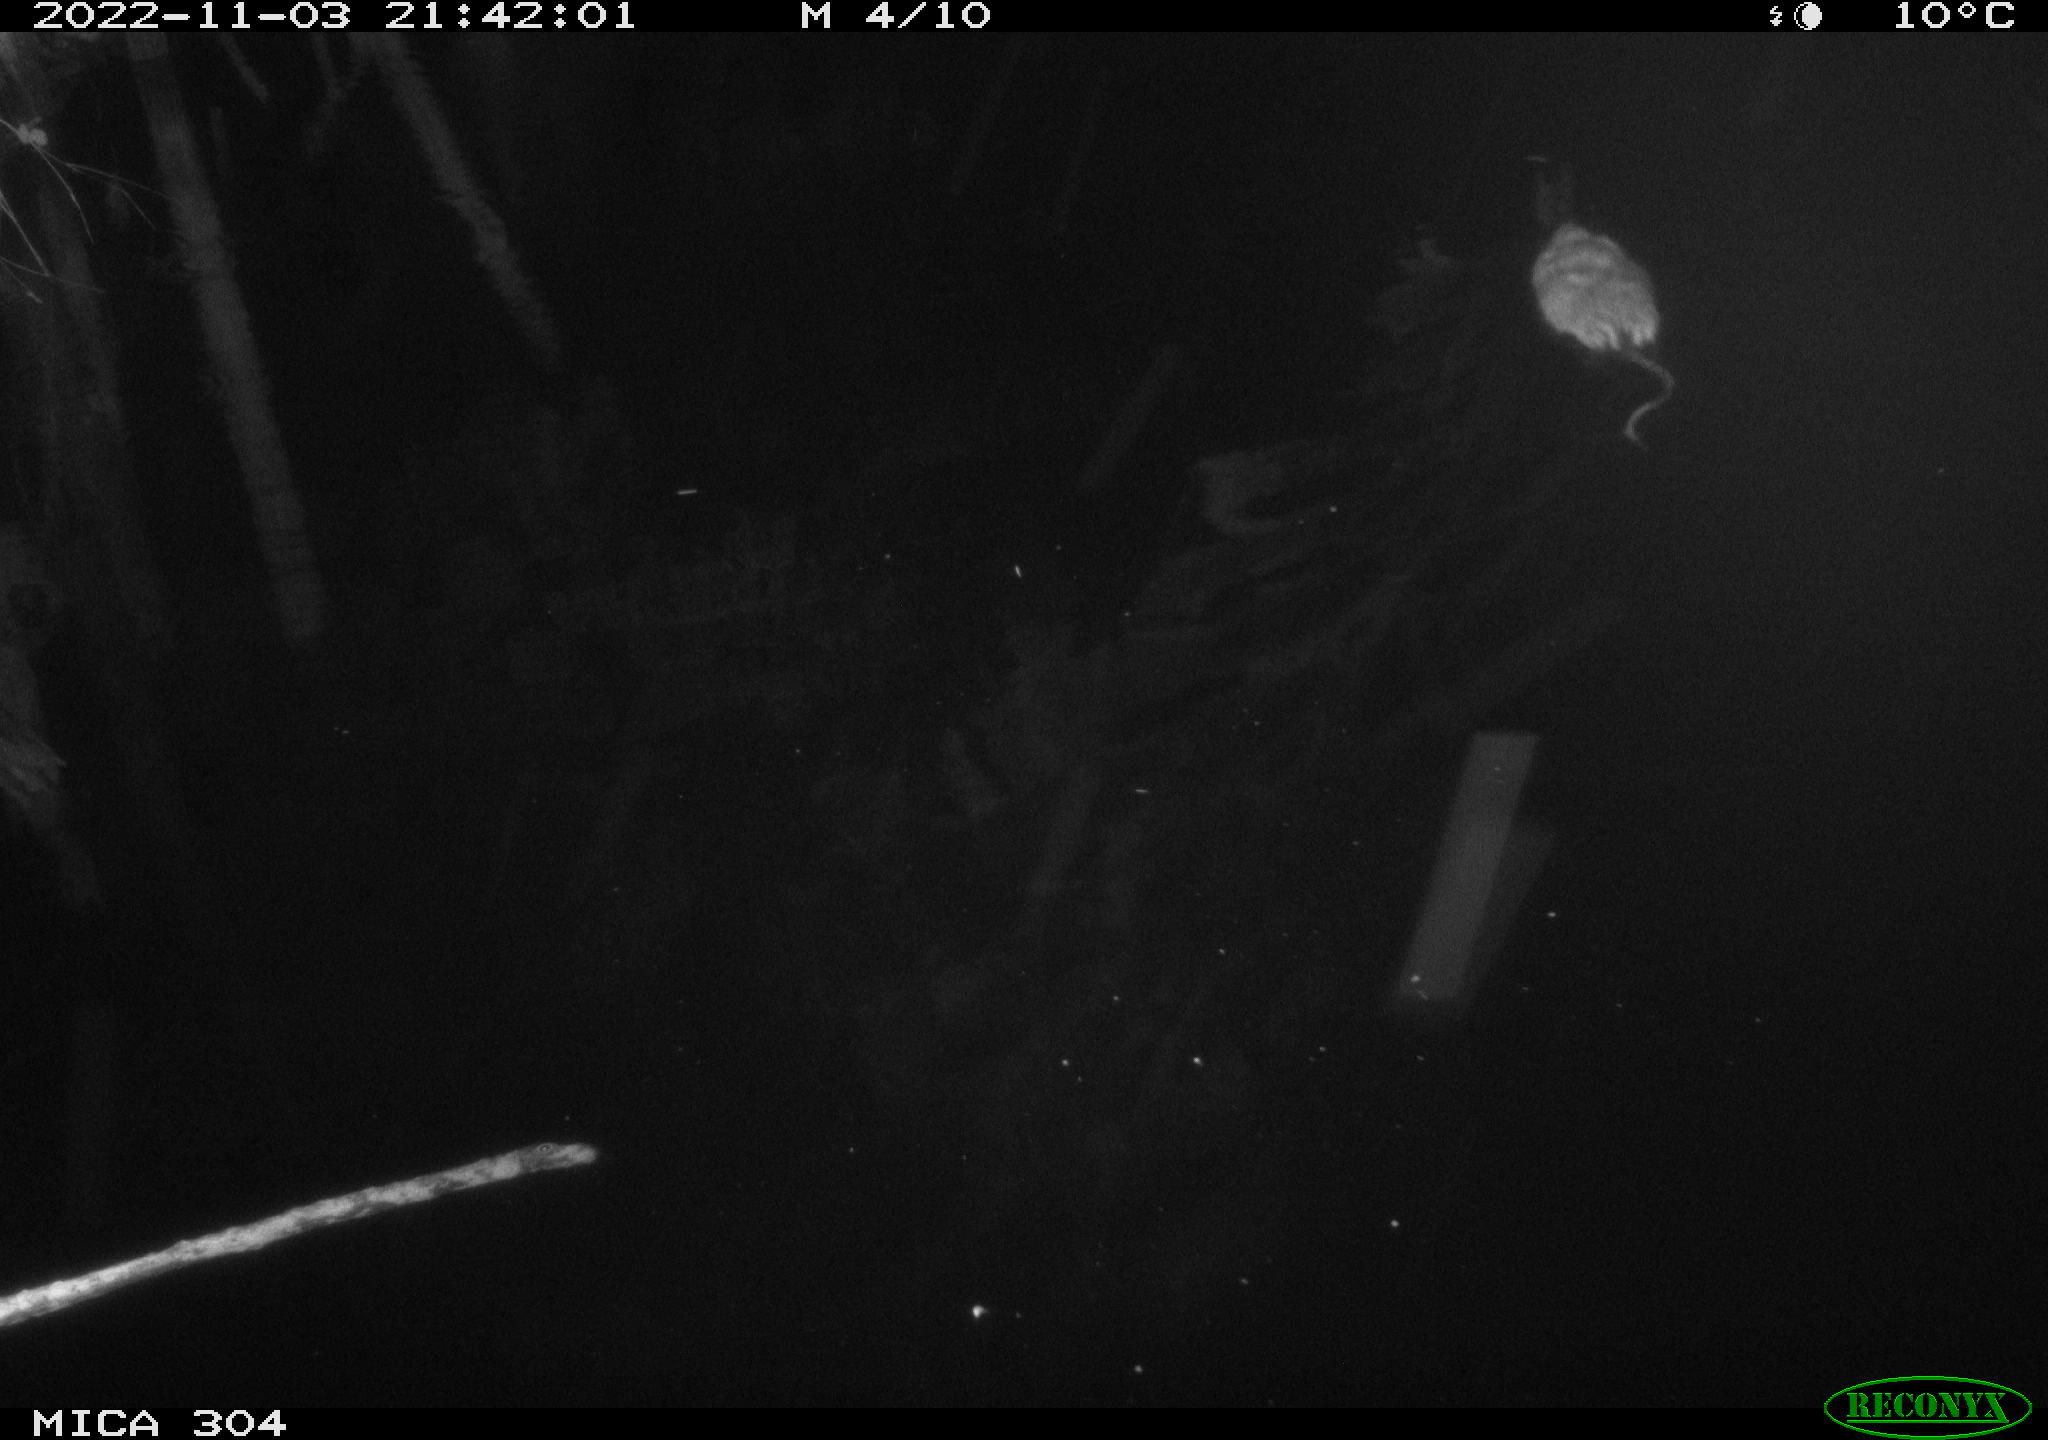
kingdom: Animalia
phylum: Chordata
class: Mammalia
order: Rodentia
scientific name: Rodentia
